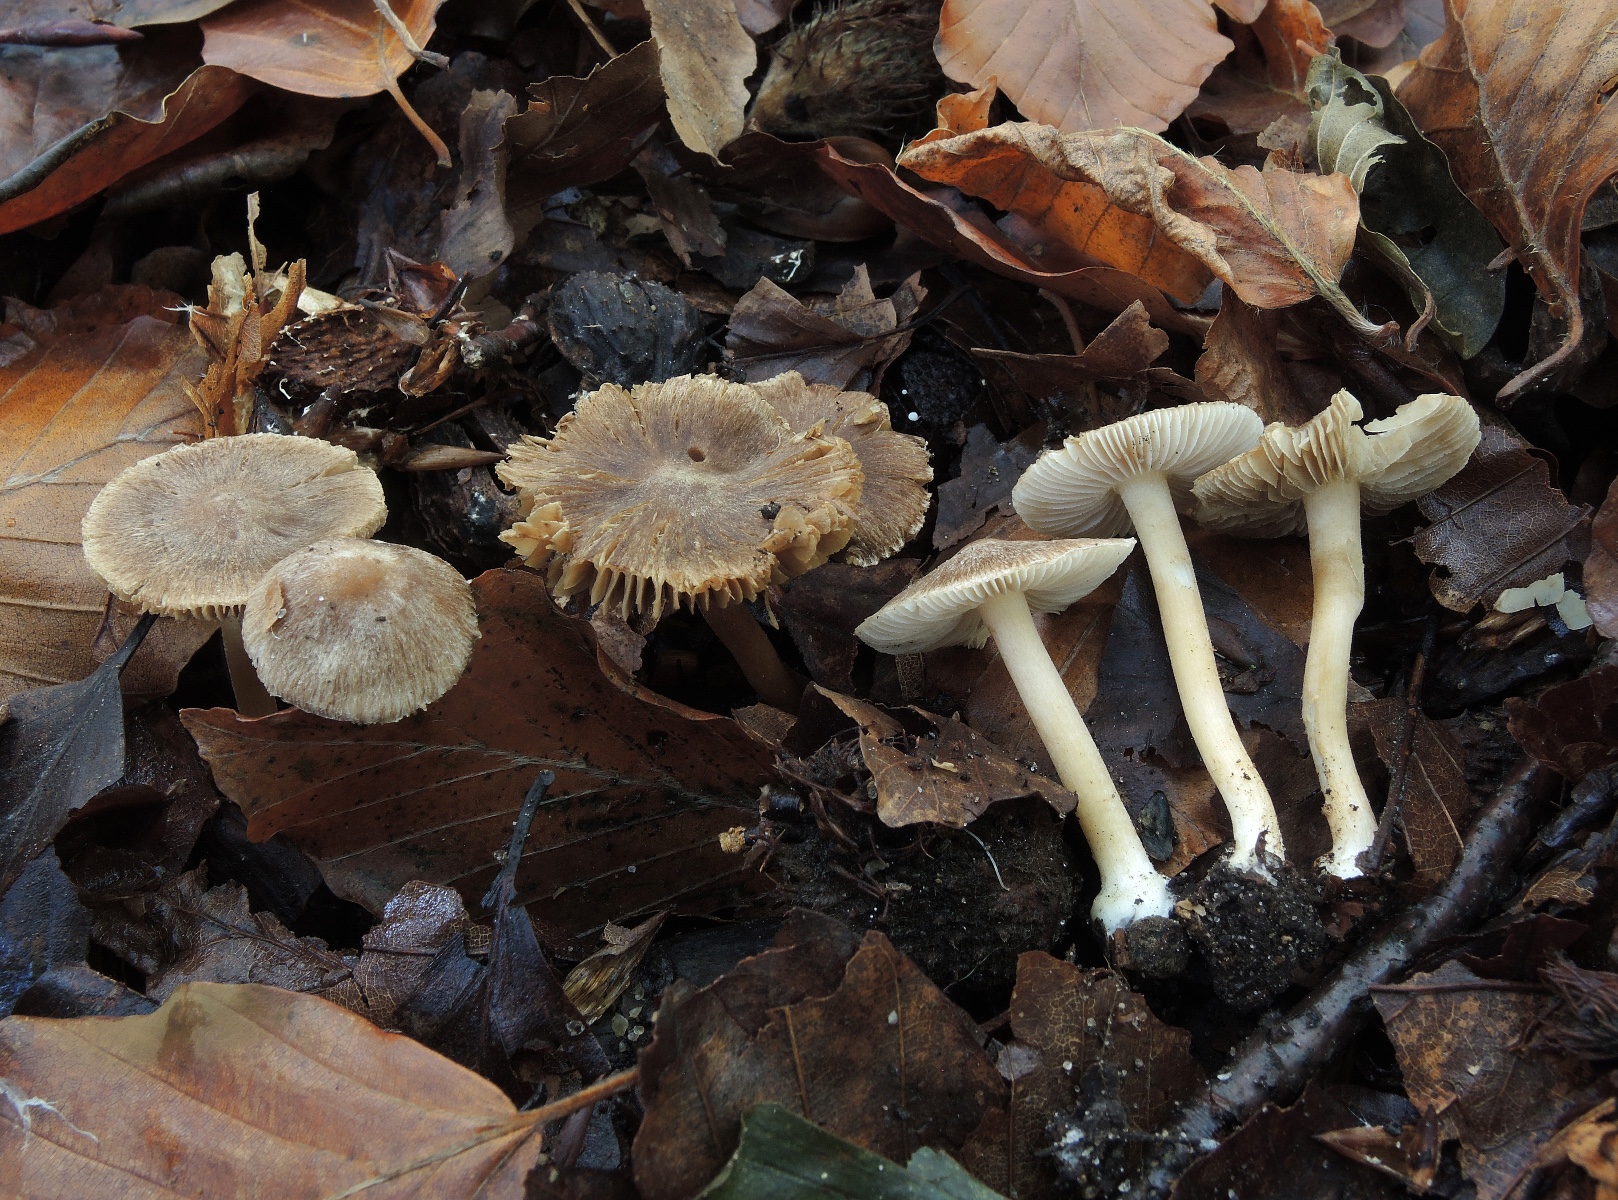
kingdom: Fungi
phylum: Basidiomycota
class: Agaricomycetes
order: Agaricales
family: Inocybaceae
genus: Inocybe
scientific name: Inocybe
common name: trævlhat
